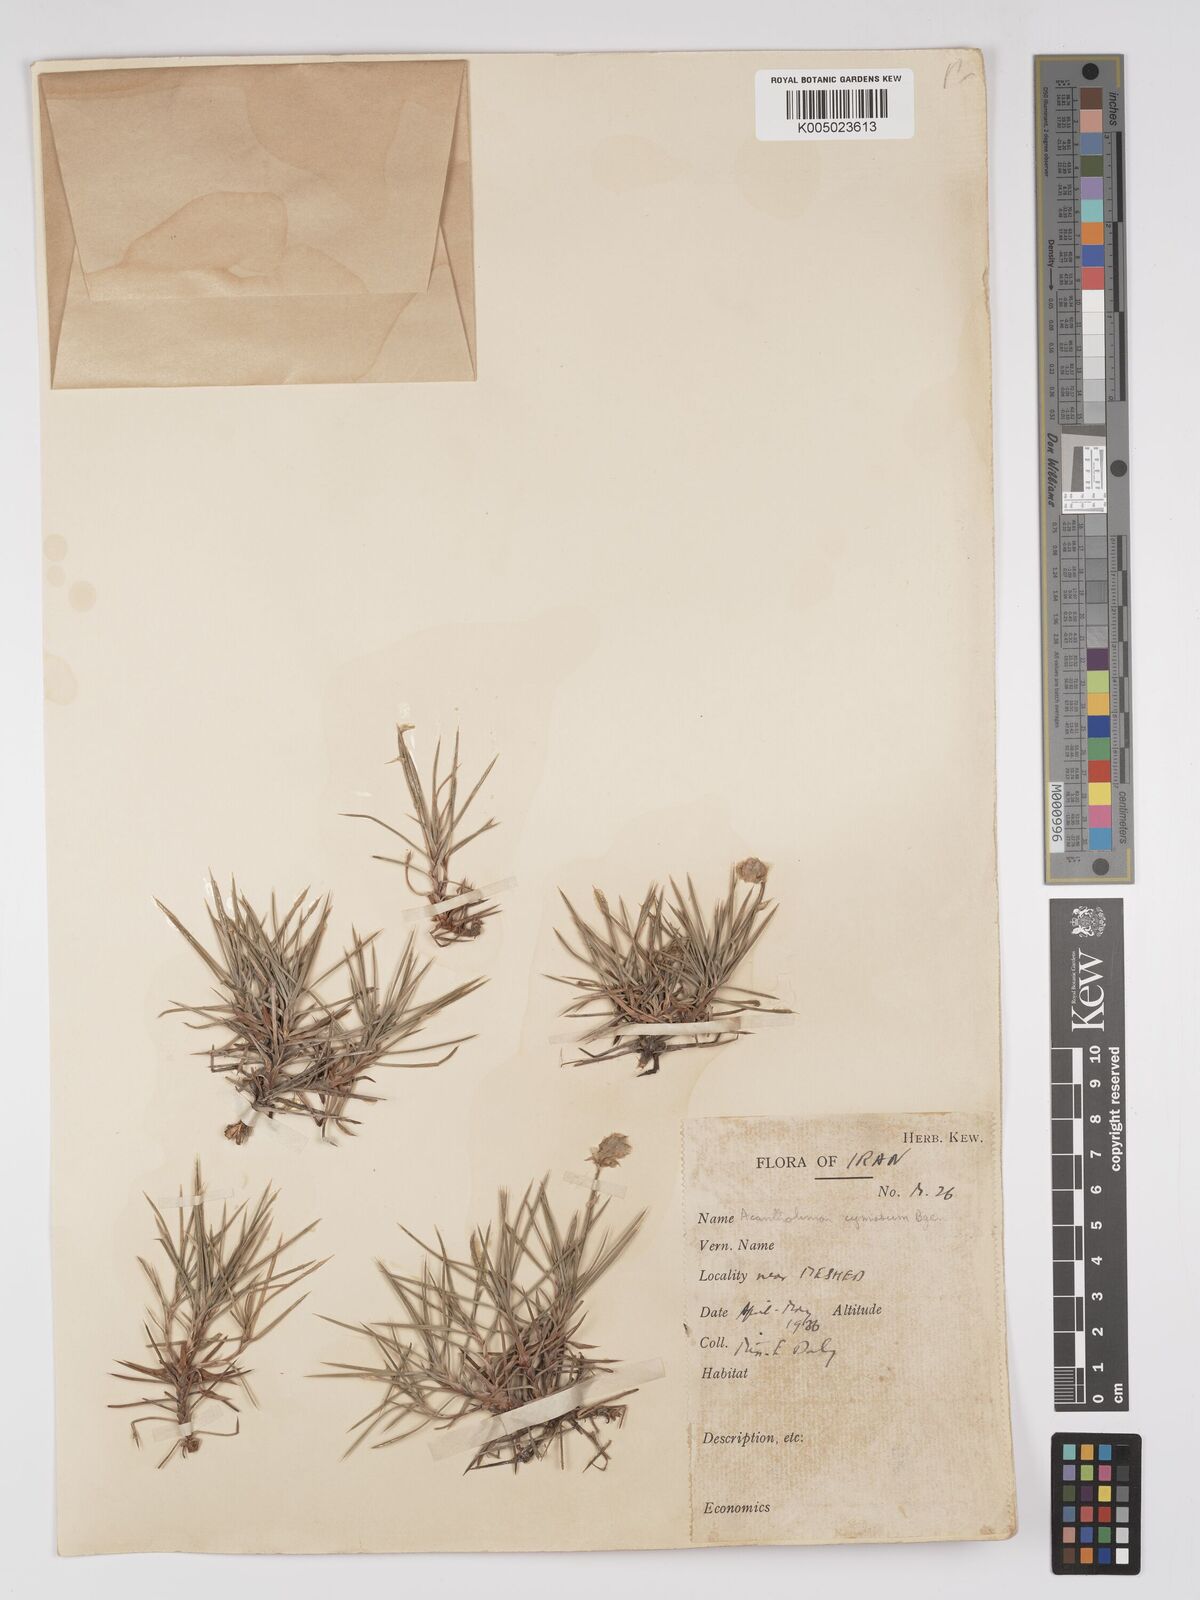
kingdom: Plantae
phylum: Tracheophyta
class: Magnoliopsida
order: Caryophyllales
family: Plumbaginaceae
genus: Acantholimon
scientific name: Acantholimon cymosum
